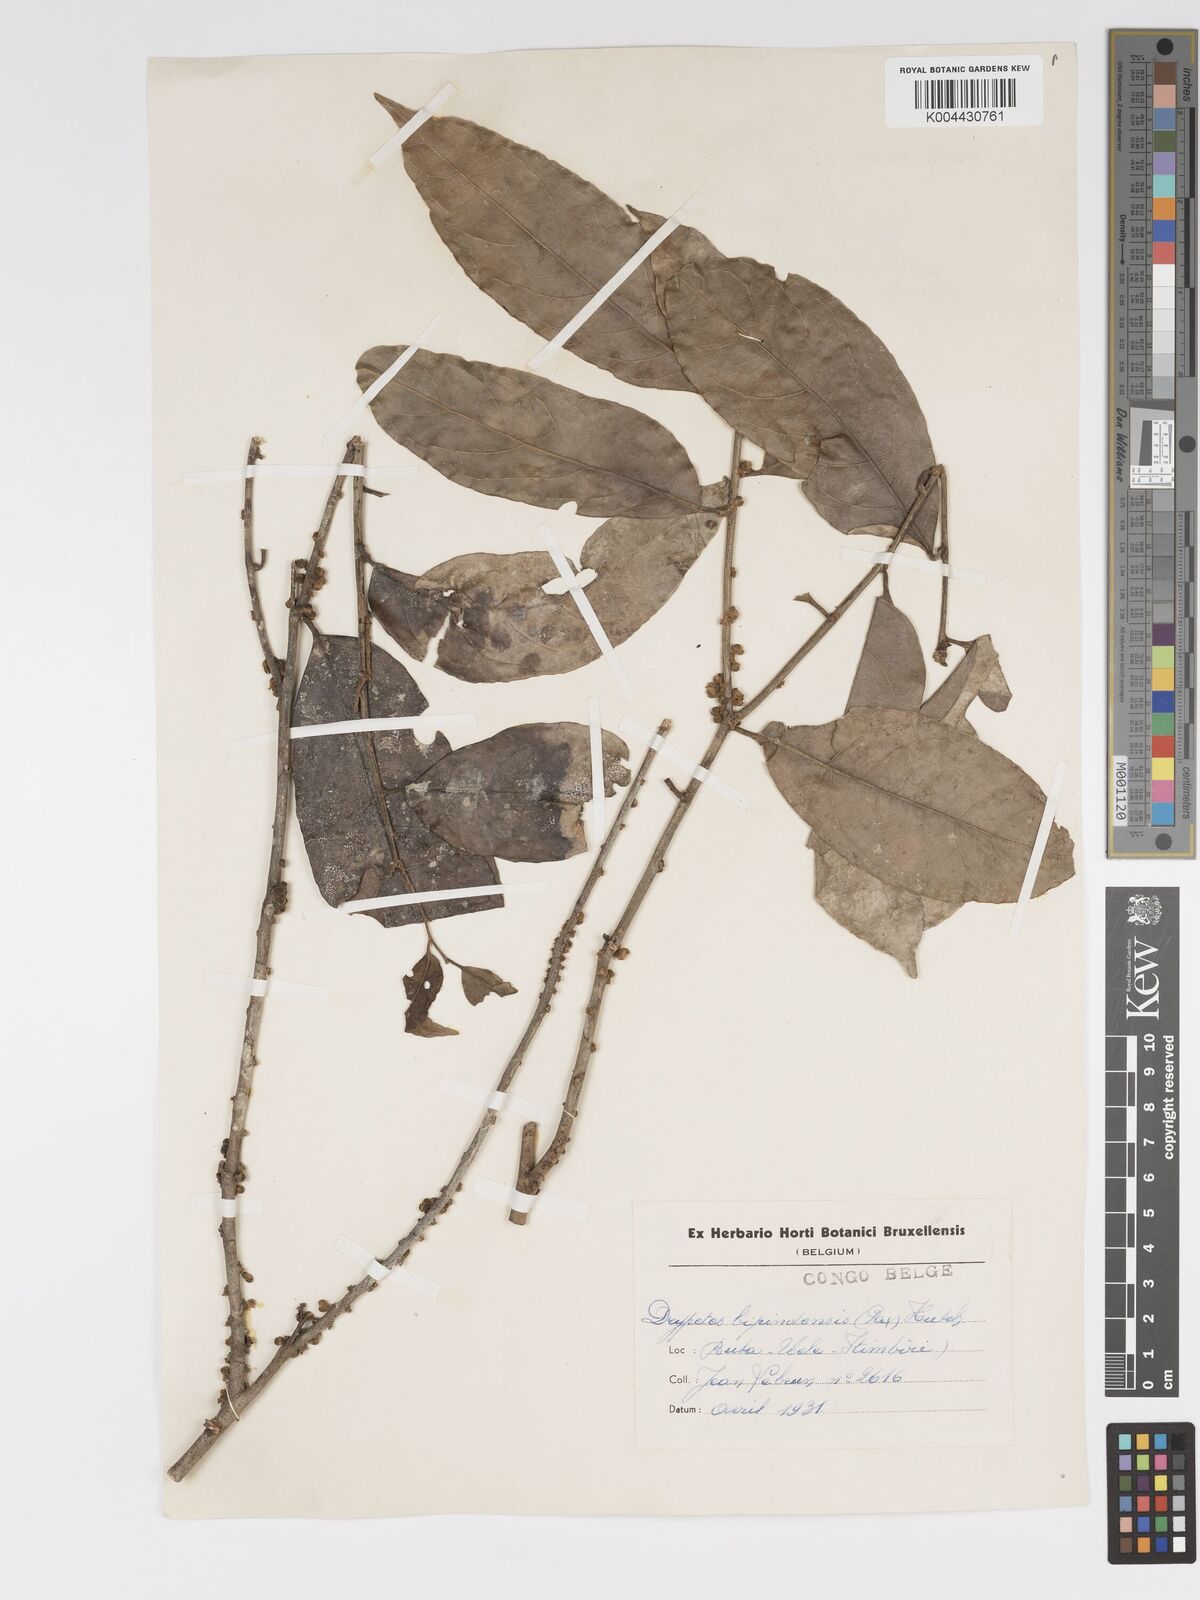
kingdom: Plantae
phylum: Tracheophyta
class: Magnoliopsida
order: Malpighiales
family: Putranjivaceae
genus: Drypetes
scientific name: Drypetes bipindensis
